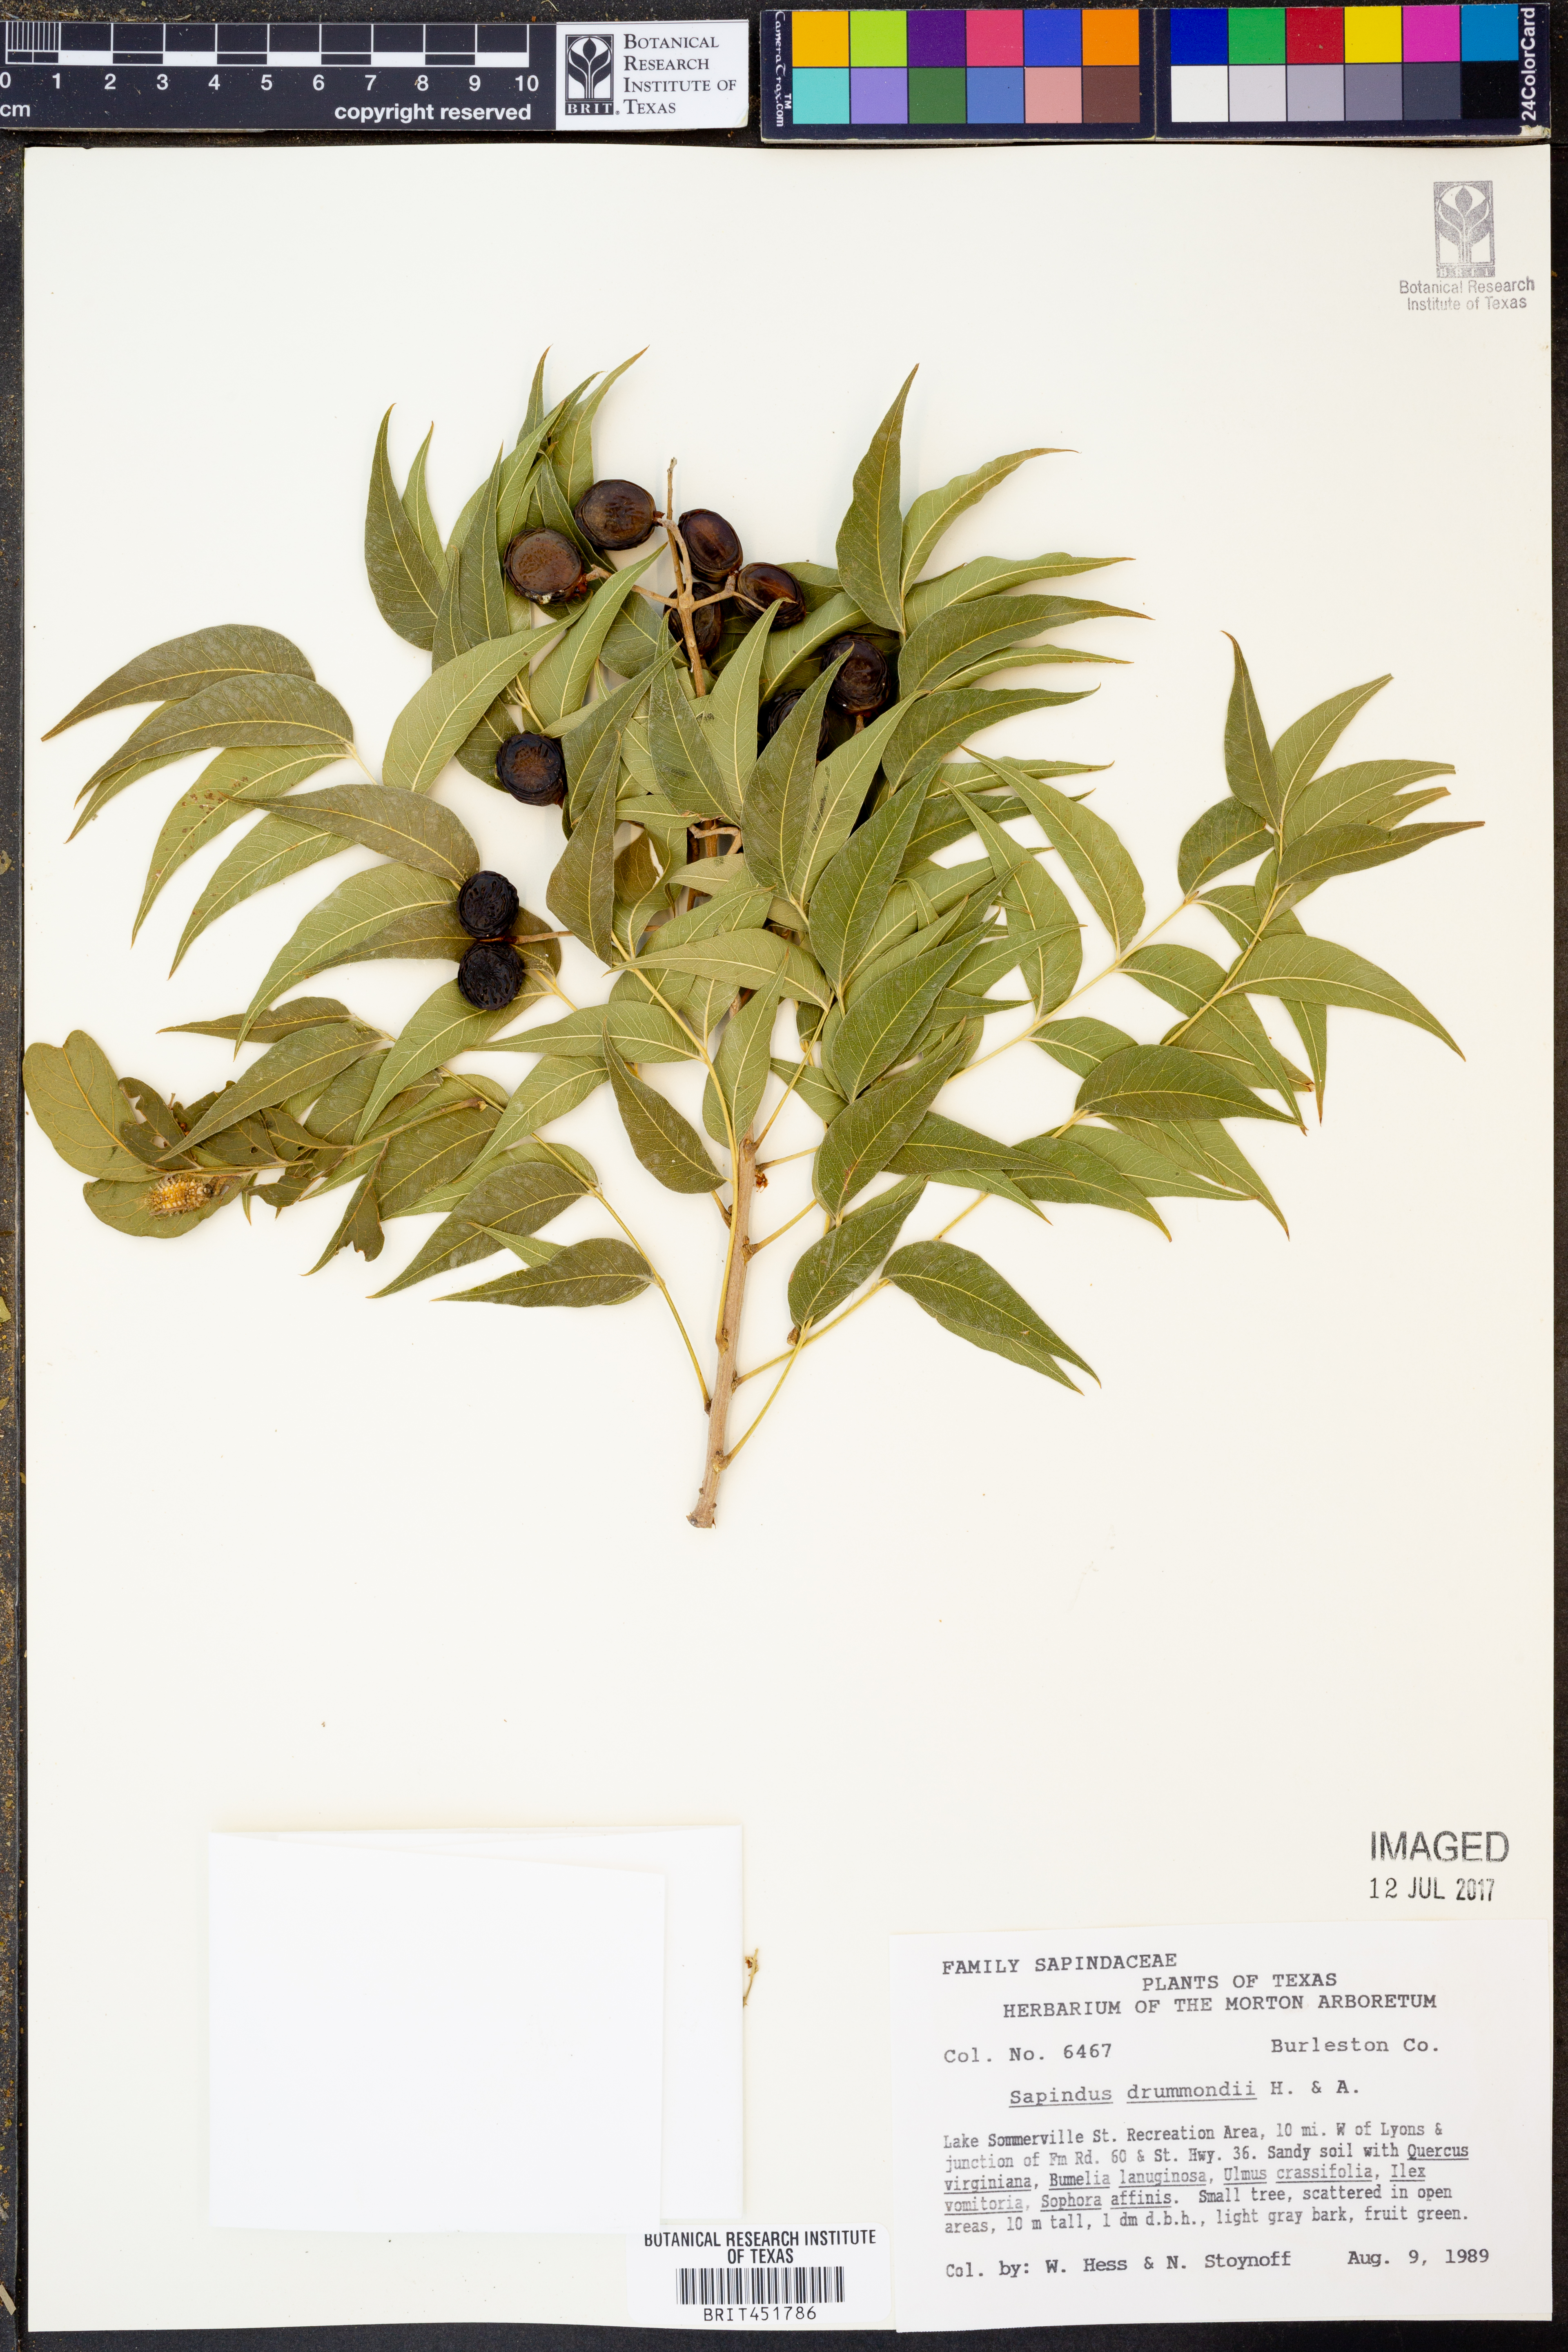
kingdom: Plantae
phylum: Tracheophyta
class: Magnoliopsida
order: Sapindales
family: Sapindaceae
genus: Sapindus
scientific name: Sapindus drummondii
